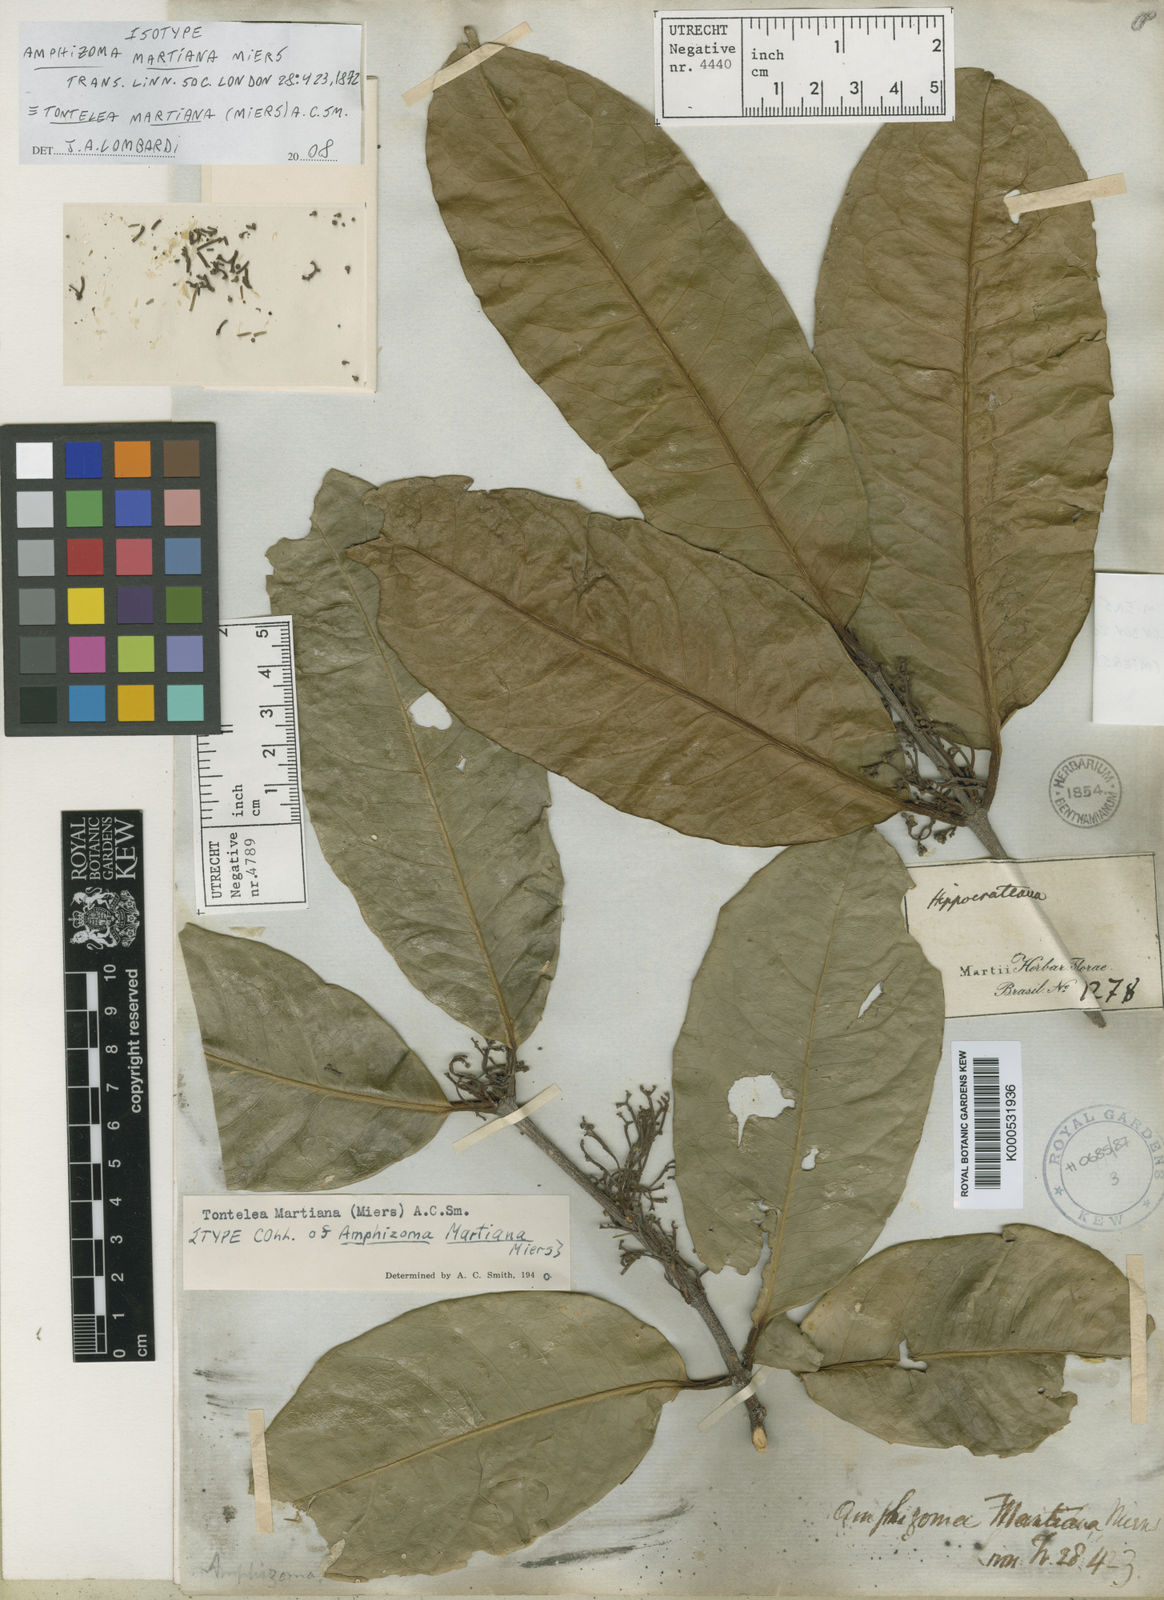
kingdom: Plantae
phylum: Tracheophyta
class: Magnoliopsida
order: Celastrales
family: Celastraceae
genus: Tontelea
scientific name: Tontelea martiana
